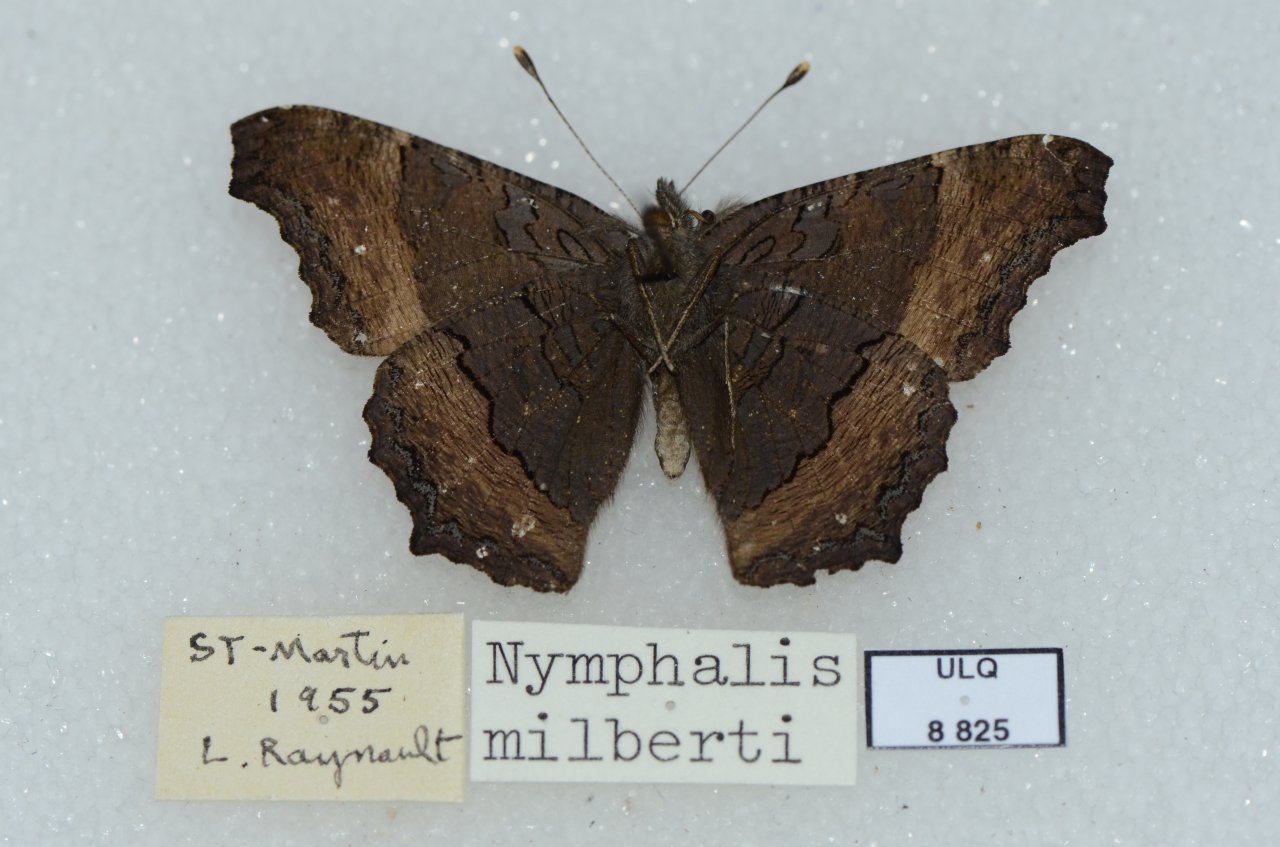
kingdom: Animalia
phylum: Arthropoda
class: Insecta
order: Lepidoptera
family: Nymphalidae
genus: Aglais
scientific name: Aglais milberti
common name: Milbert's Tortoiseshell
